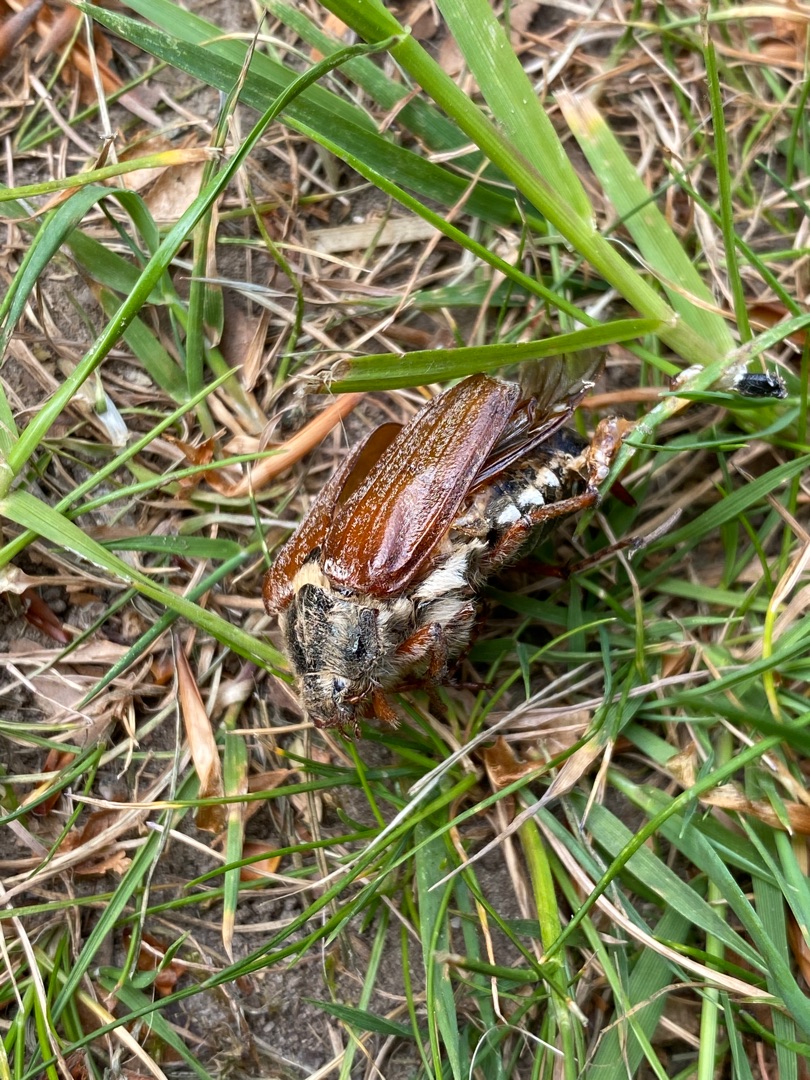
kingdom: Animalia
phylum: Arthropoda
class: Insecta
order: Coleoptera
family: Scarabaeidae
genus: Melolontha
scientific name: Melolontha melolontha
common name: Almindelig oldenborre
